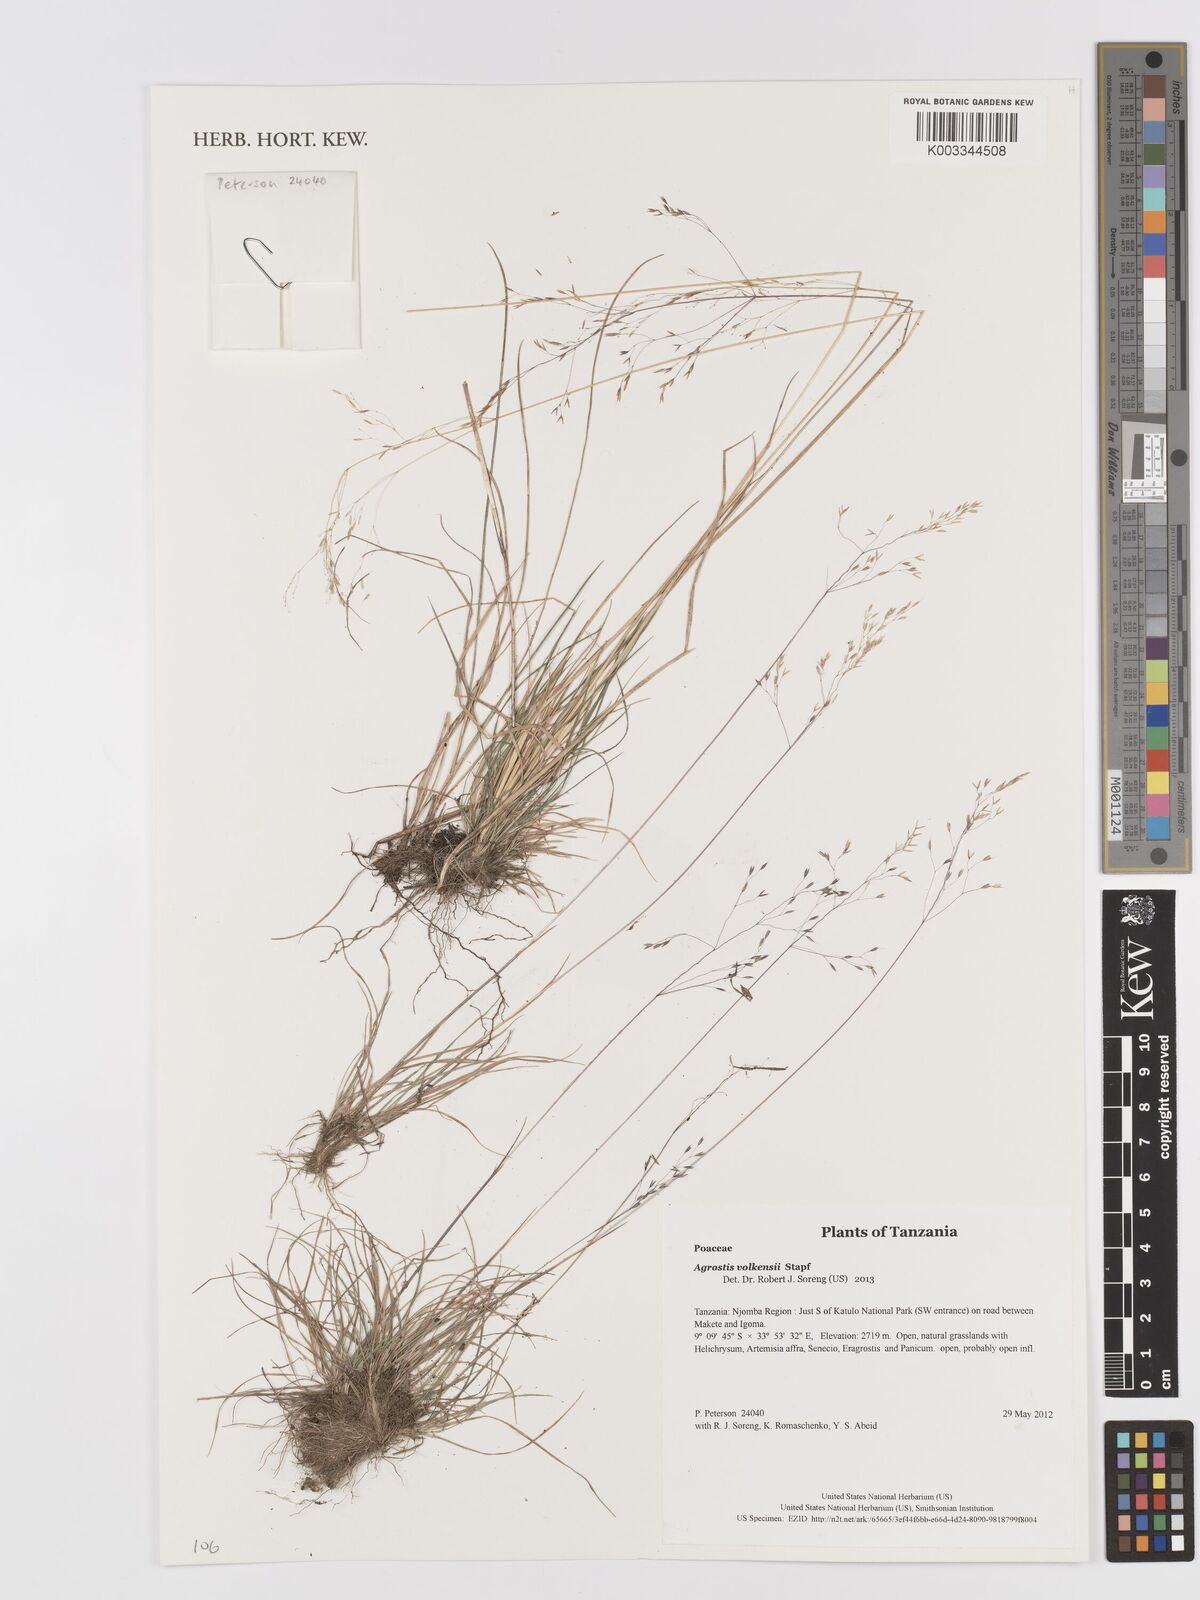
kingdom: Plantae
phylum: Tracheophyta
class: Liliopsida
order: Poales
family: Poaceae
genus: Agrostis
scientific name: Agrostis volkensii
